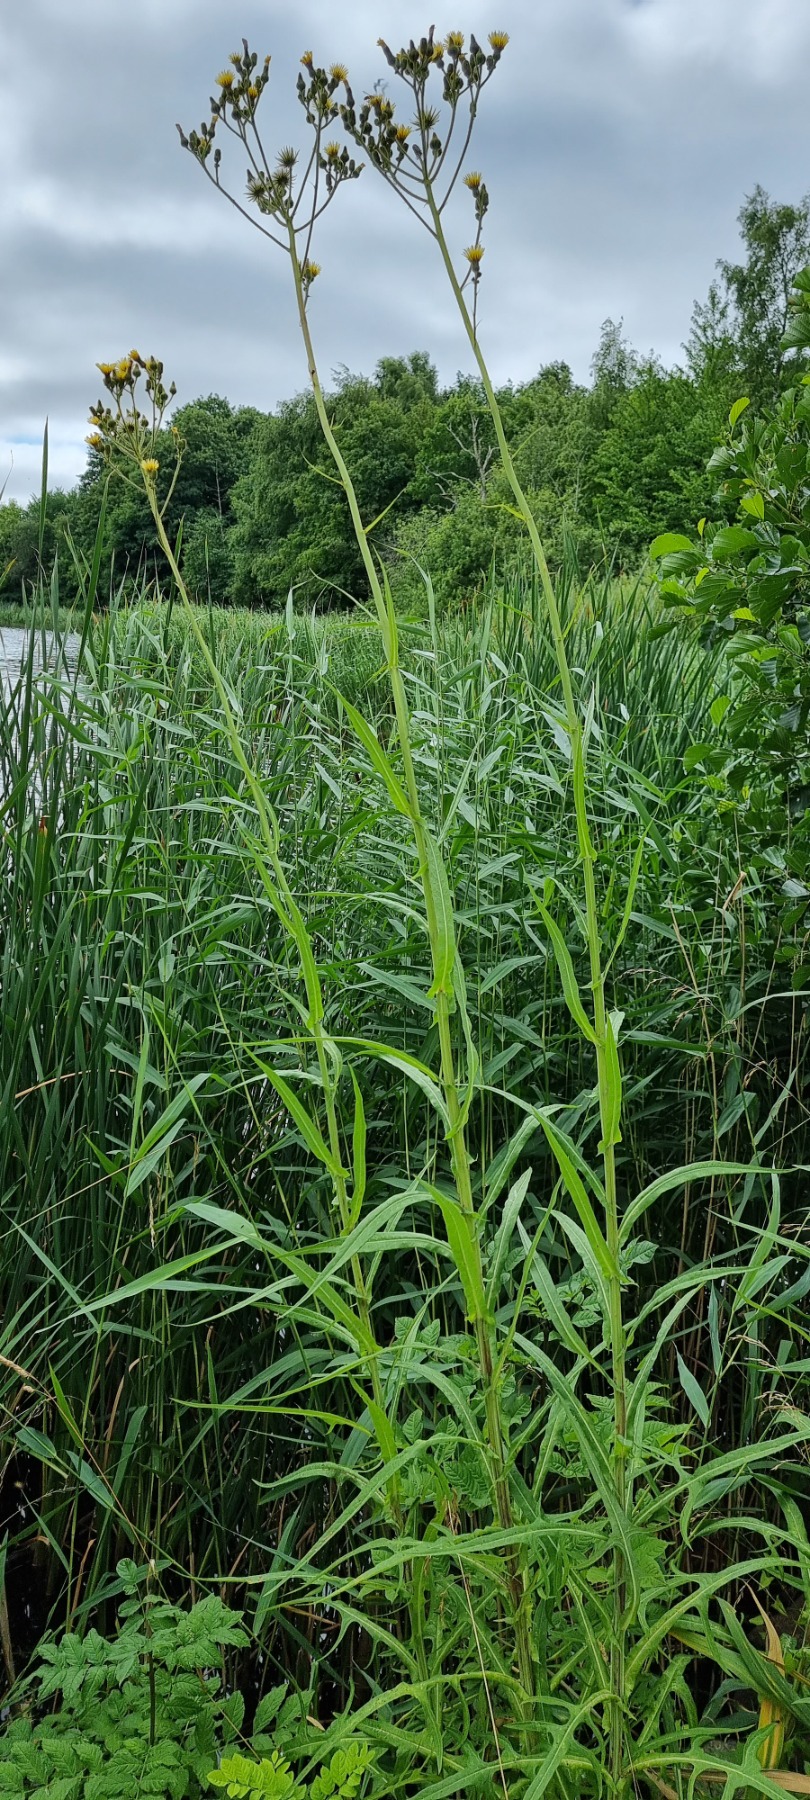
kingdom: Plantae
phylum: Tracheophyta
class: Magnoliopsida
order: Asterales
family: Asteraceae
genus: Sonchus
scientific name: Sonchus palustris
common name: Kær-svinemælk
